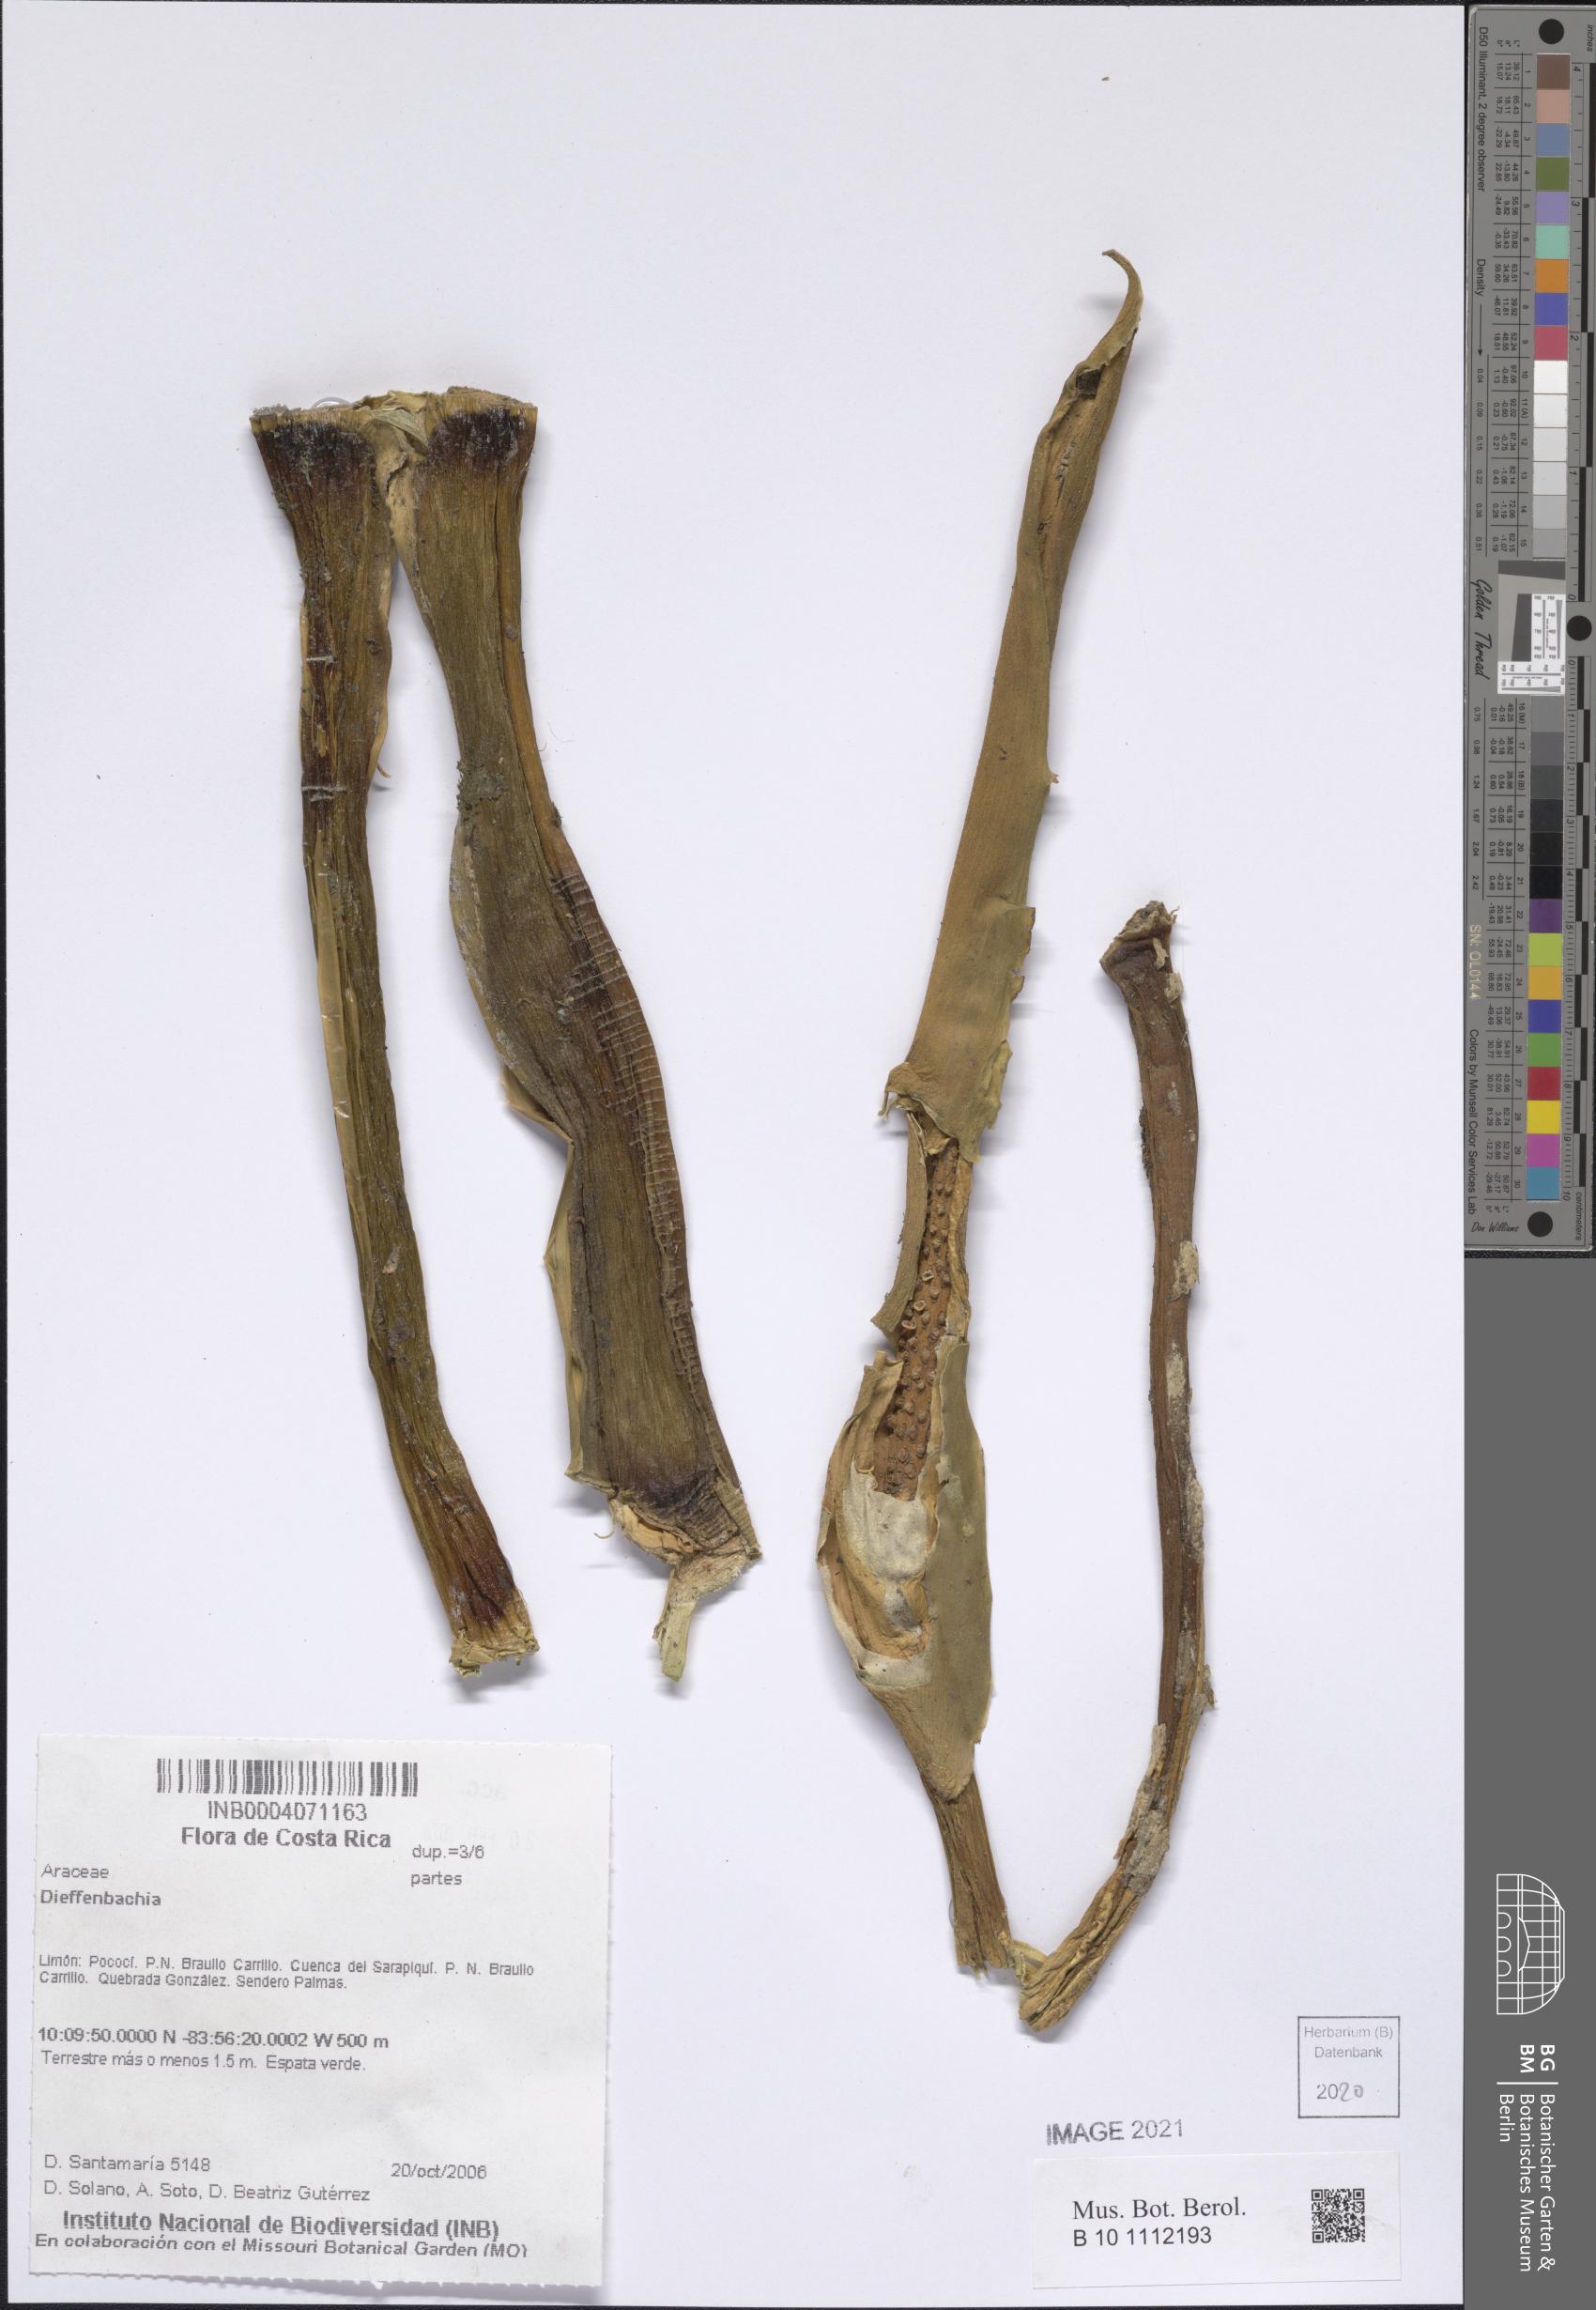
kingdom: Plantae
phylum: Tracheophyta
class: Liliopsida
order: Alismatales
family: Araceae
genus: Dieffenbachia
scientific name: Dieffenbachia
